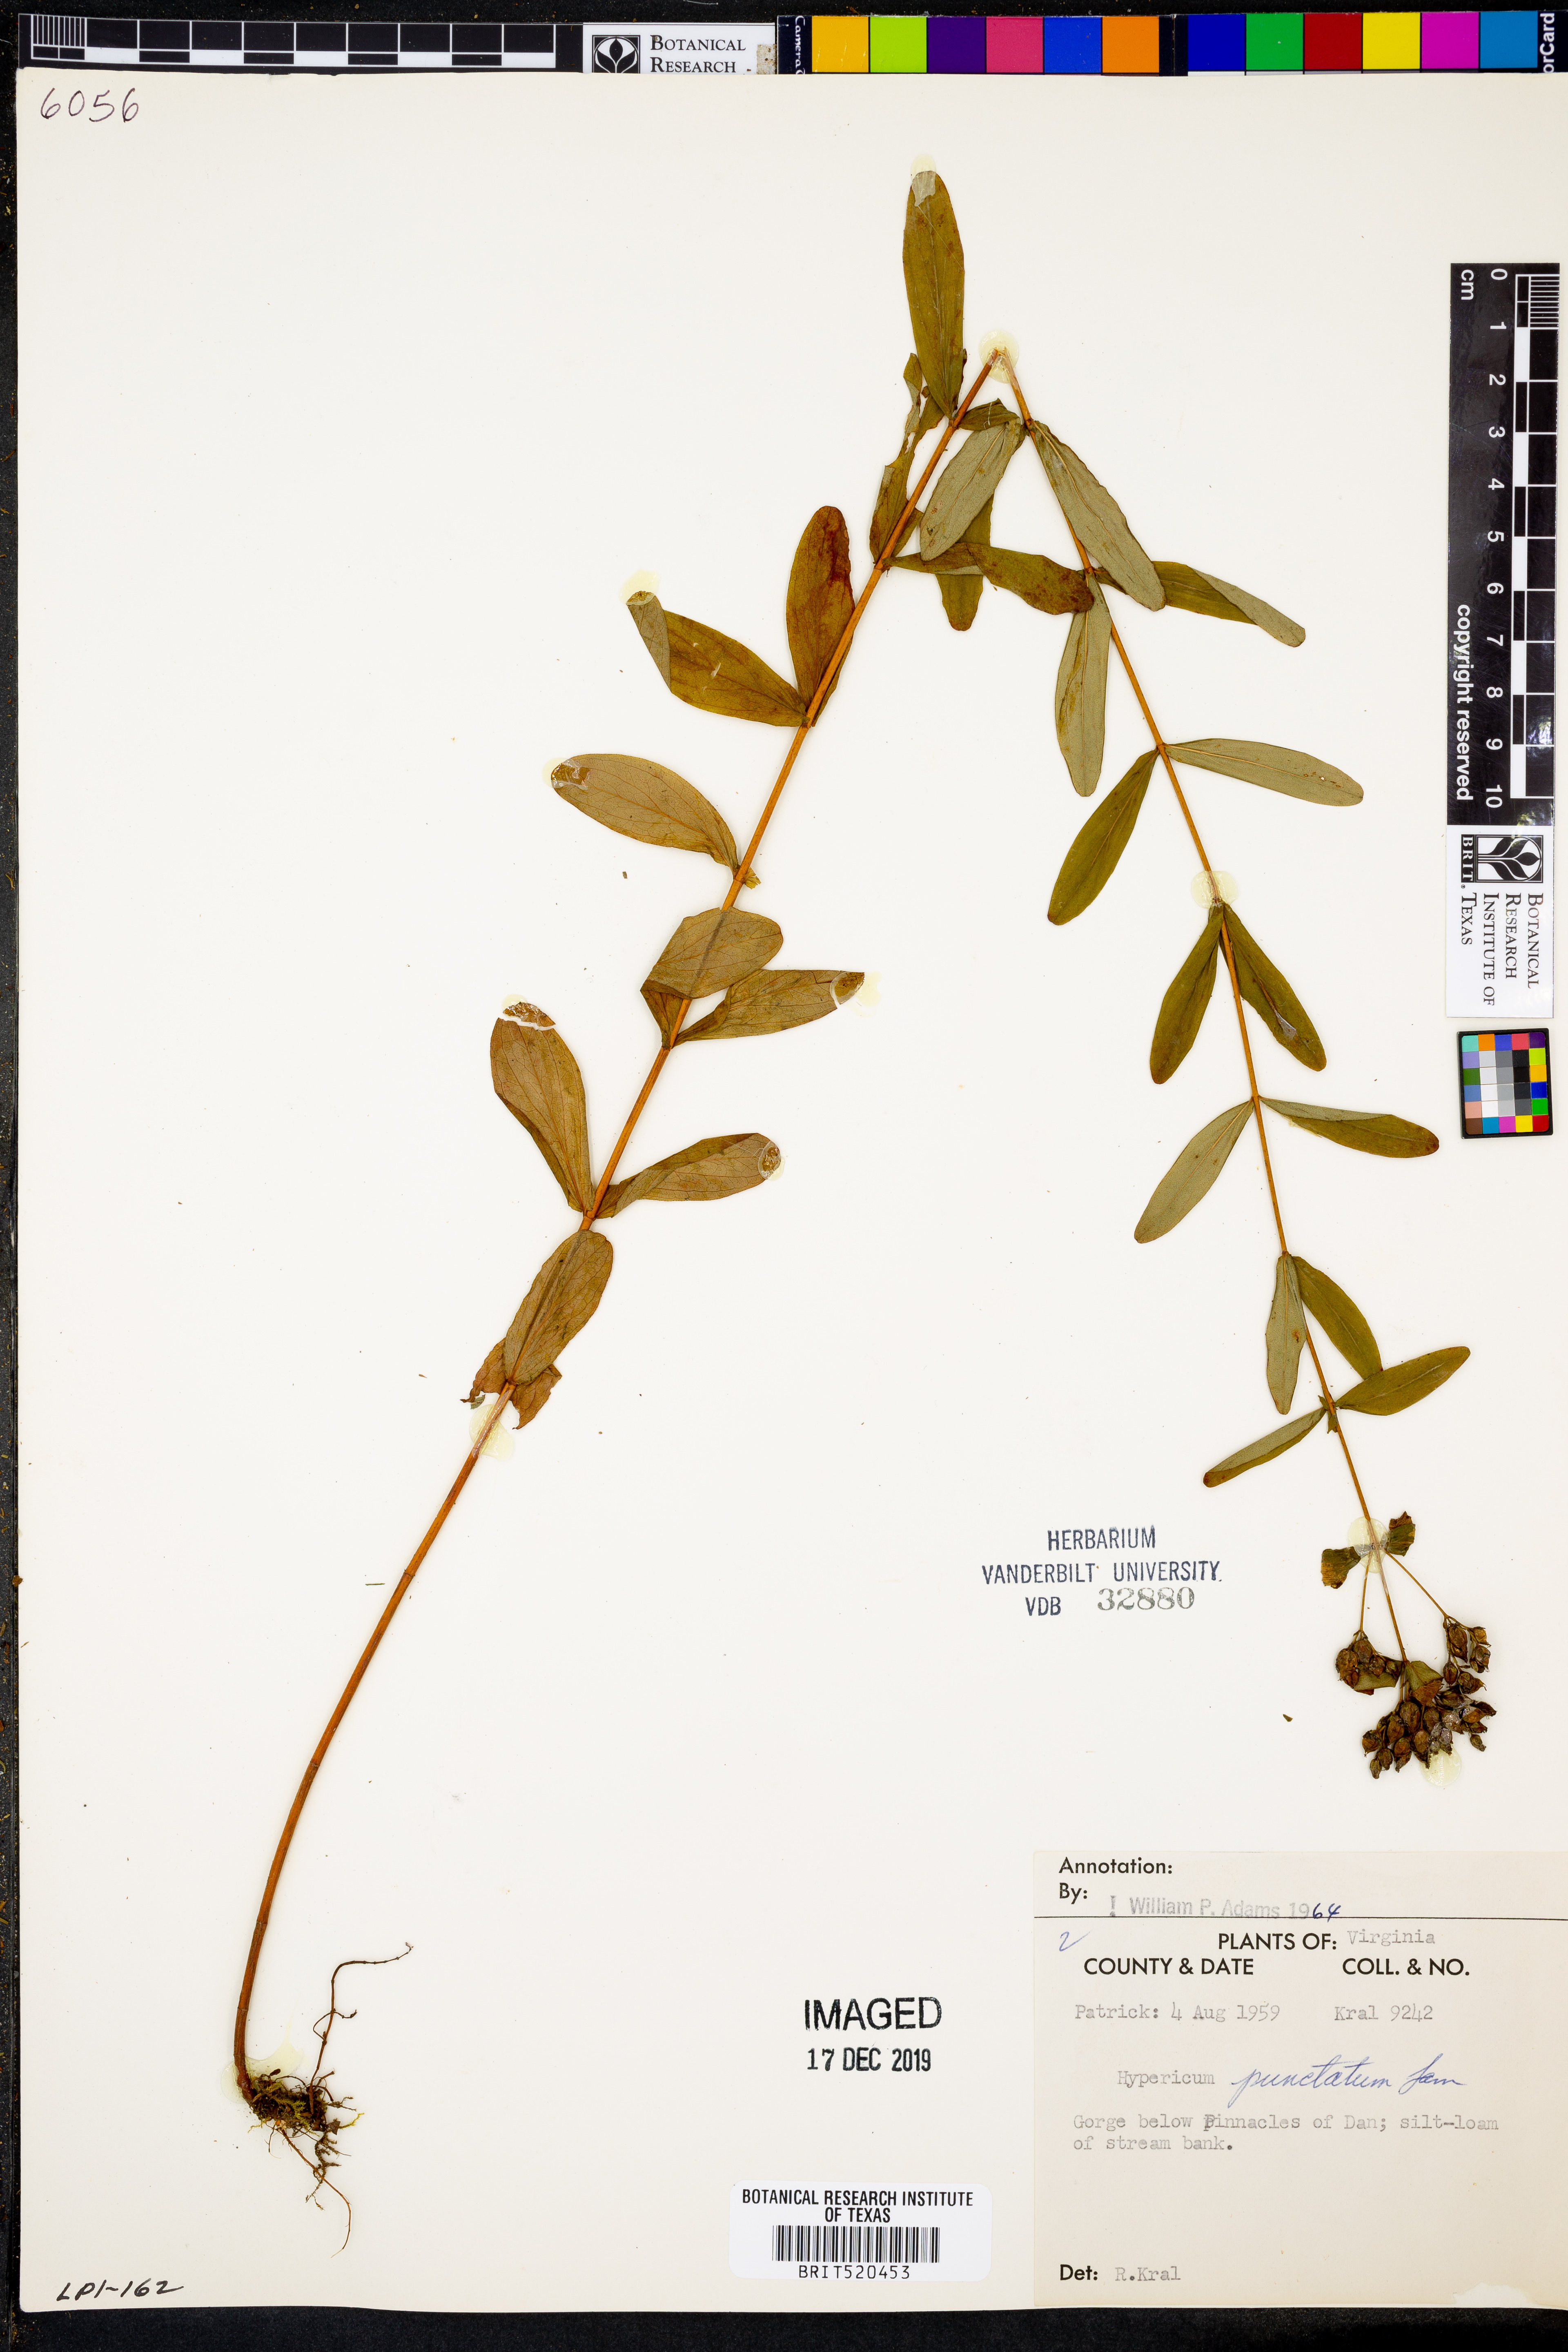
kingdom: Plantae
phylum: Tracheophyta
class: Magnoliopsida
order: Malpighiales
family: Hypericaceae
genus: Hypericum
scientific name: Hypericum punctatum
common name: Spotted st. john's-wort
